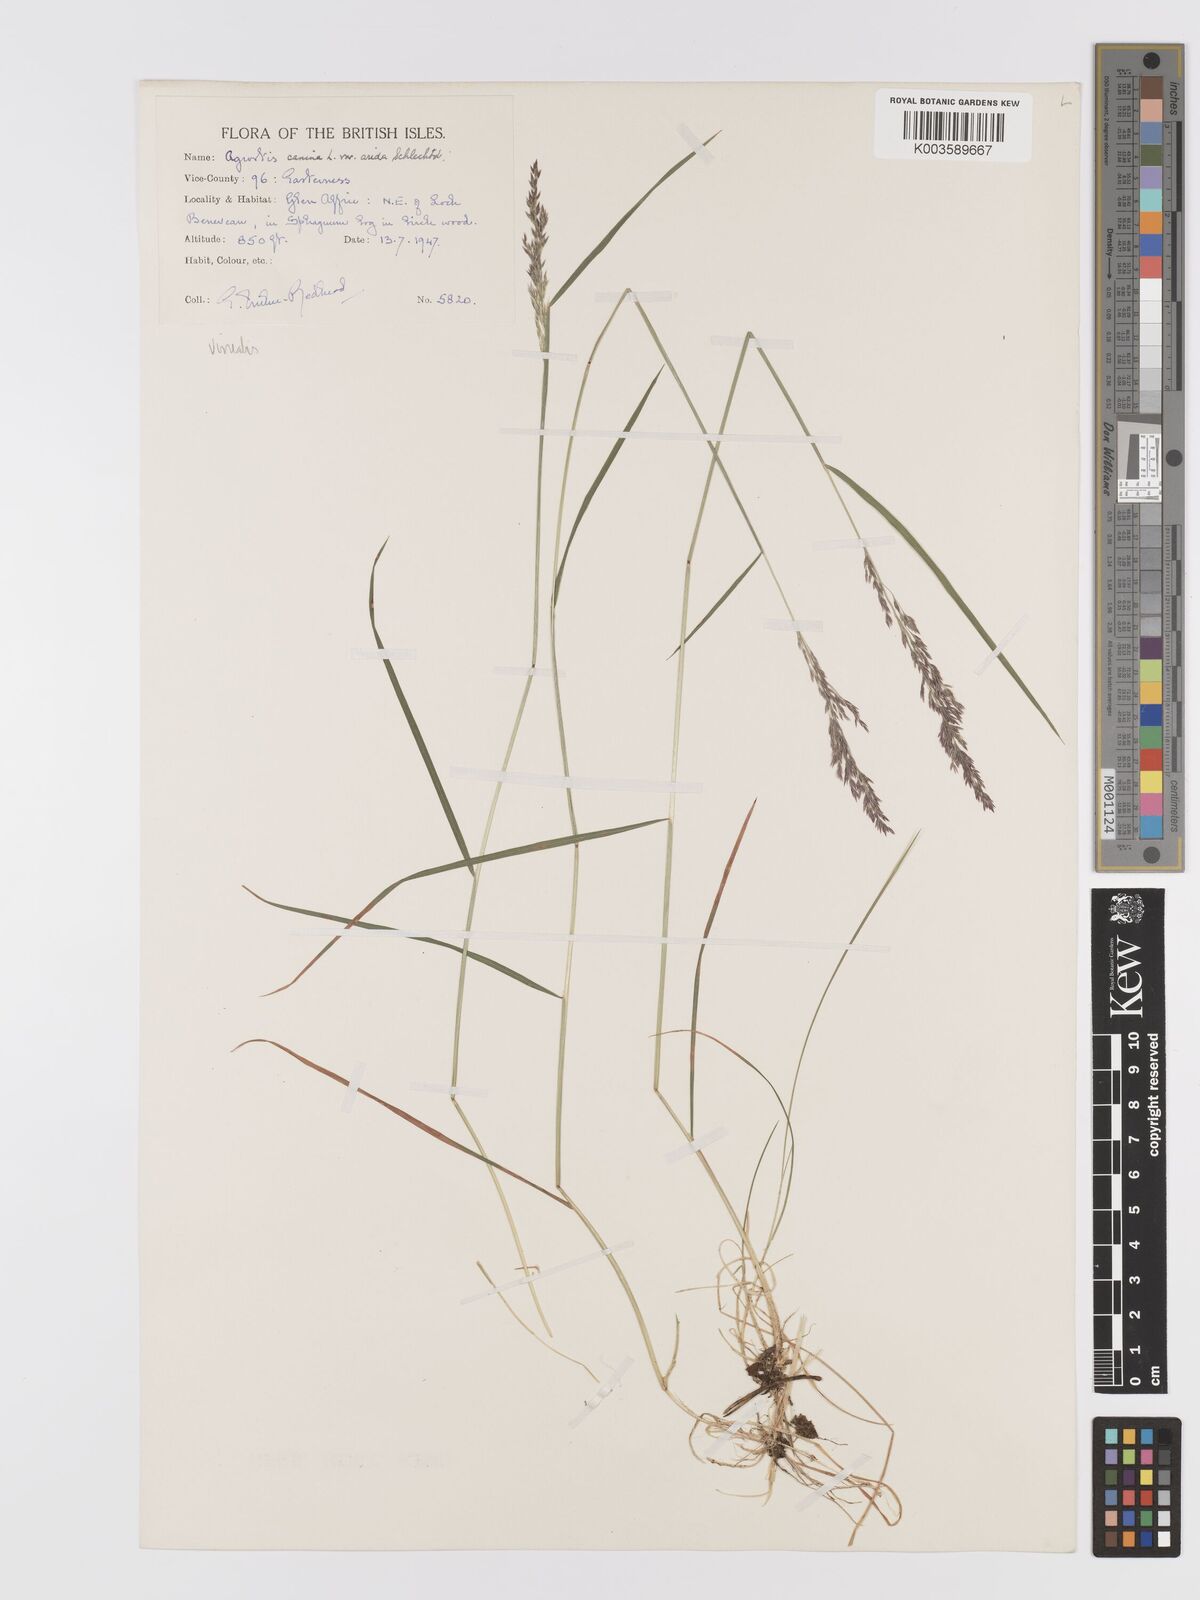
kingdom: Plantae
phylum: Tracheophyta
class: Liliopsida
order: Poales
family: Poaceae
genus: Agrostis
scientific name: Agrostis
